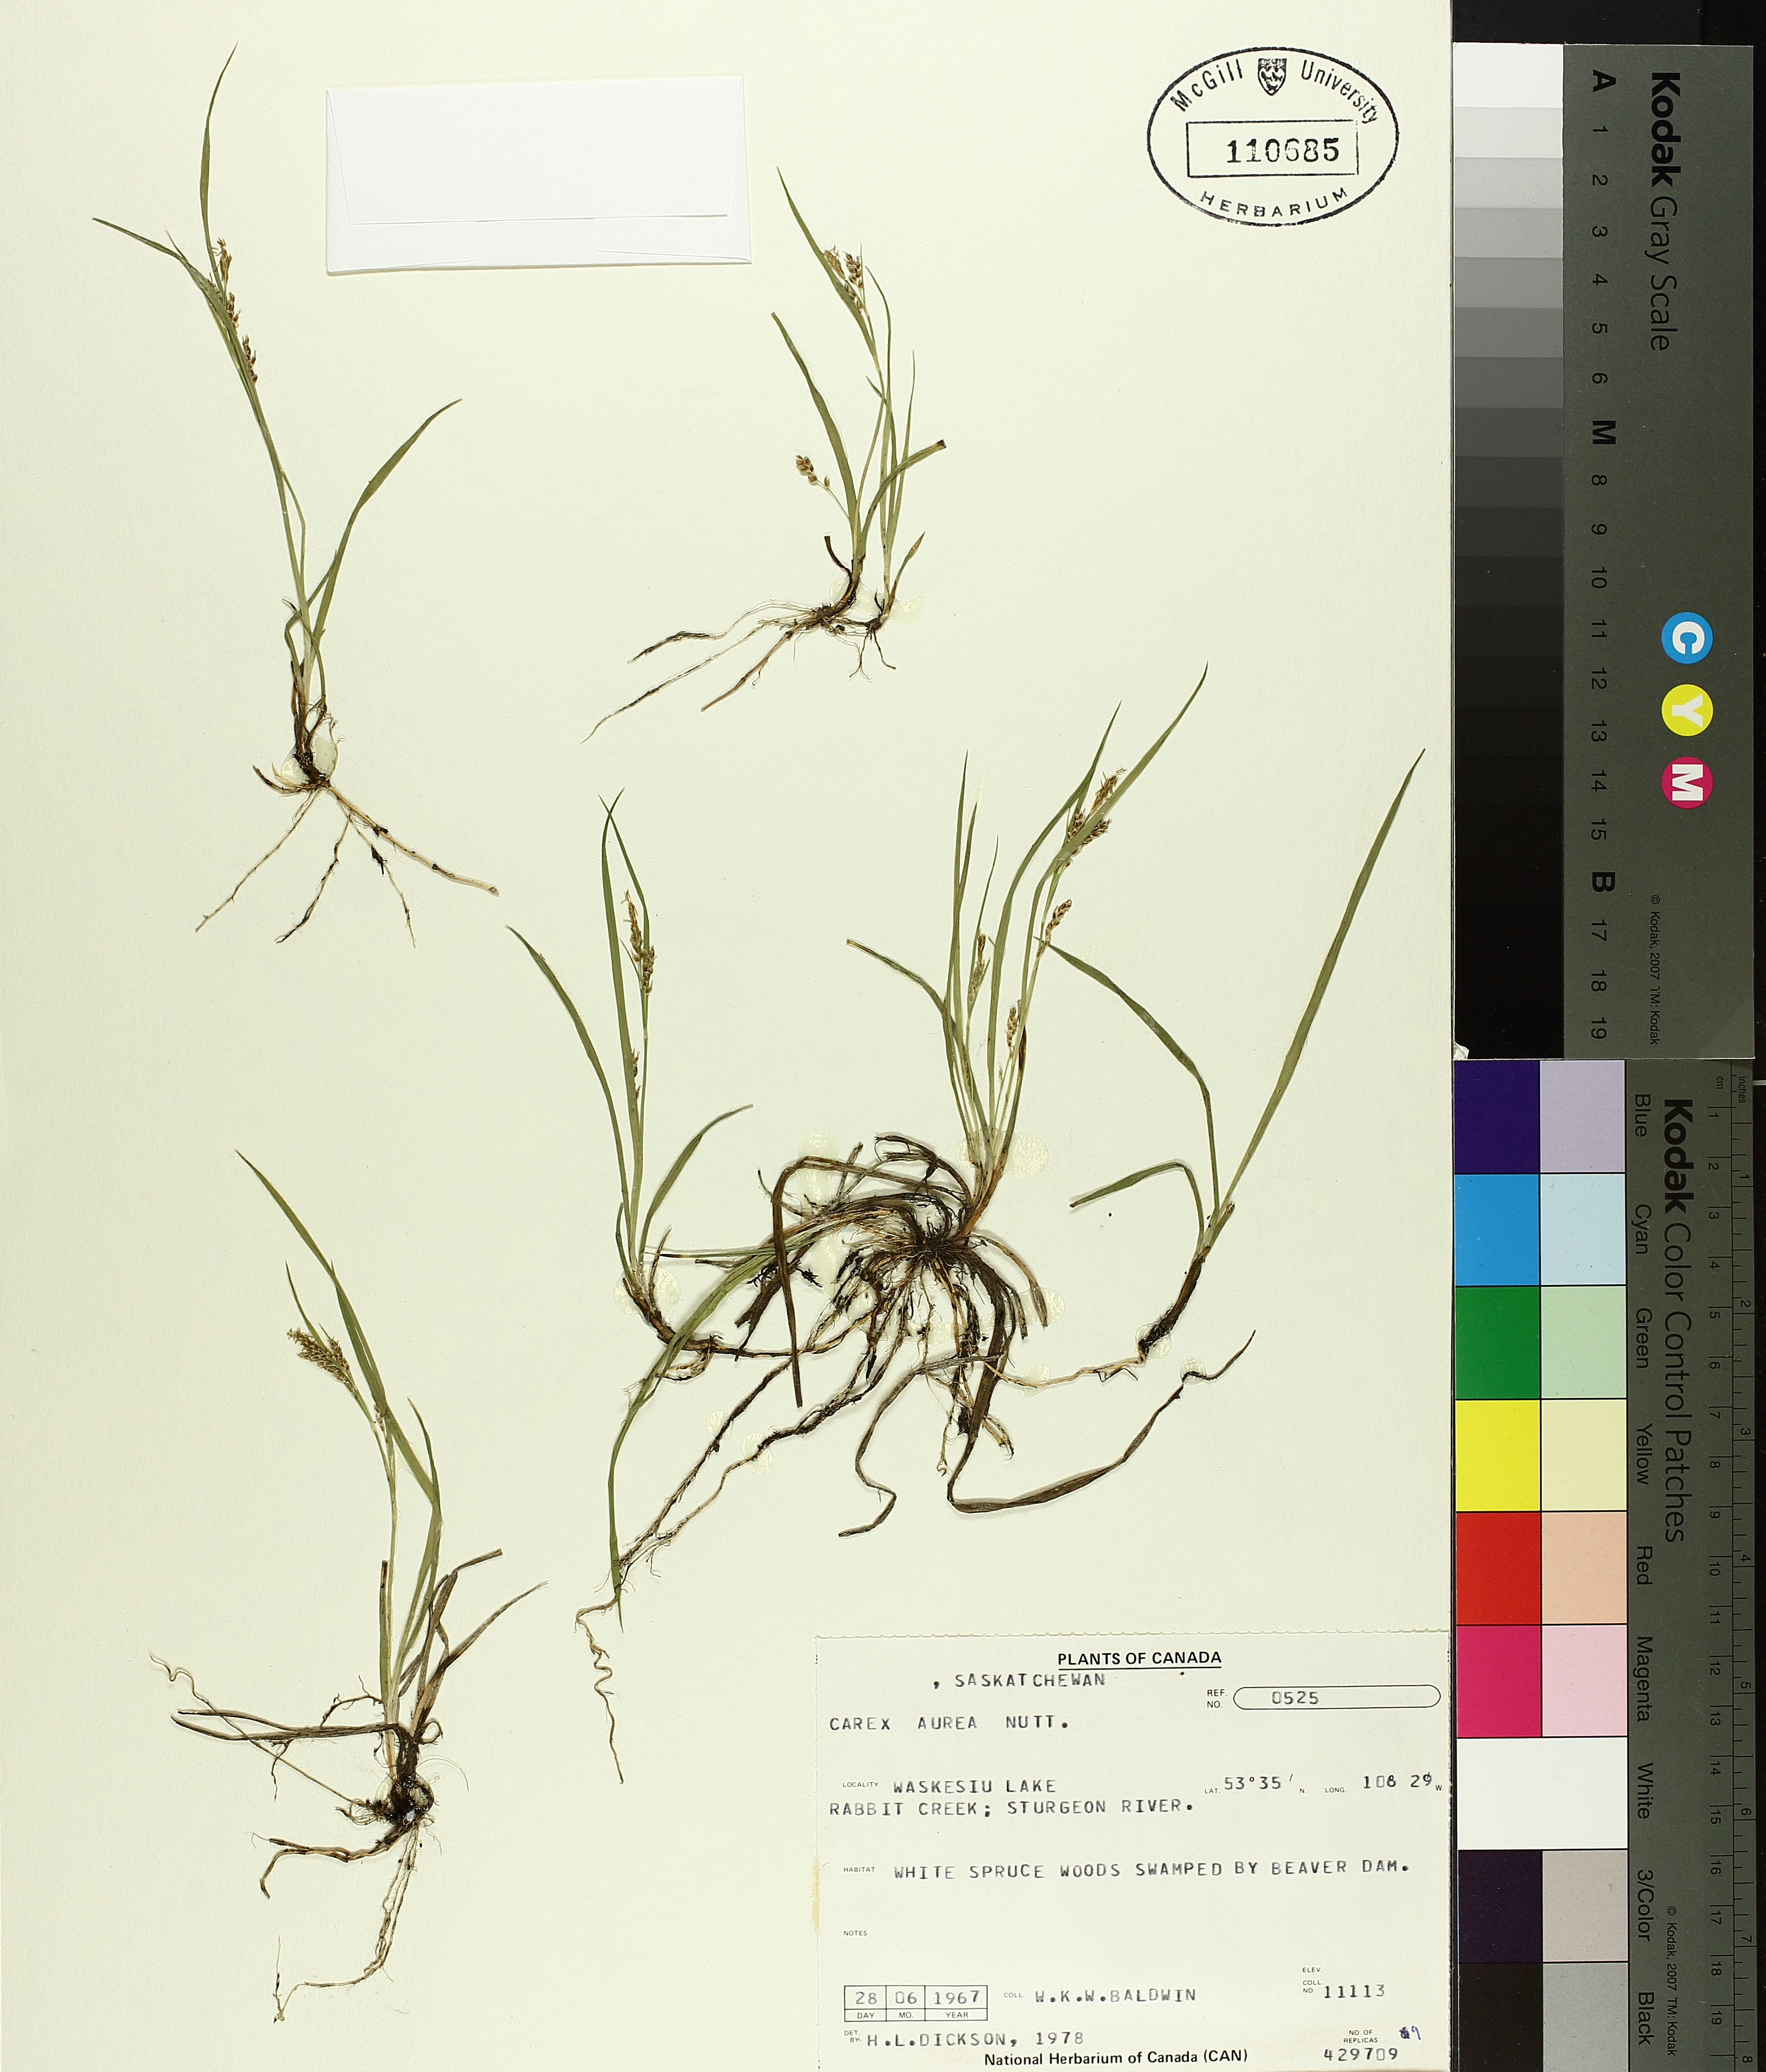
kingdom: Plantae
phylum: Tracheophyta
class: Liliopsida
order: Poales
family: Cyperaceae
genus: Carex
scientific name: Carex aurea
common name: Golden sedge
